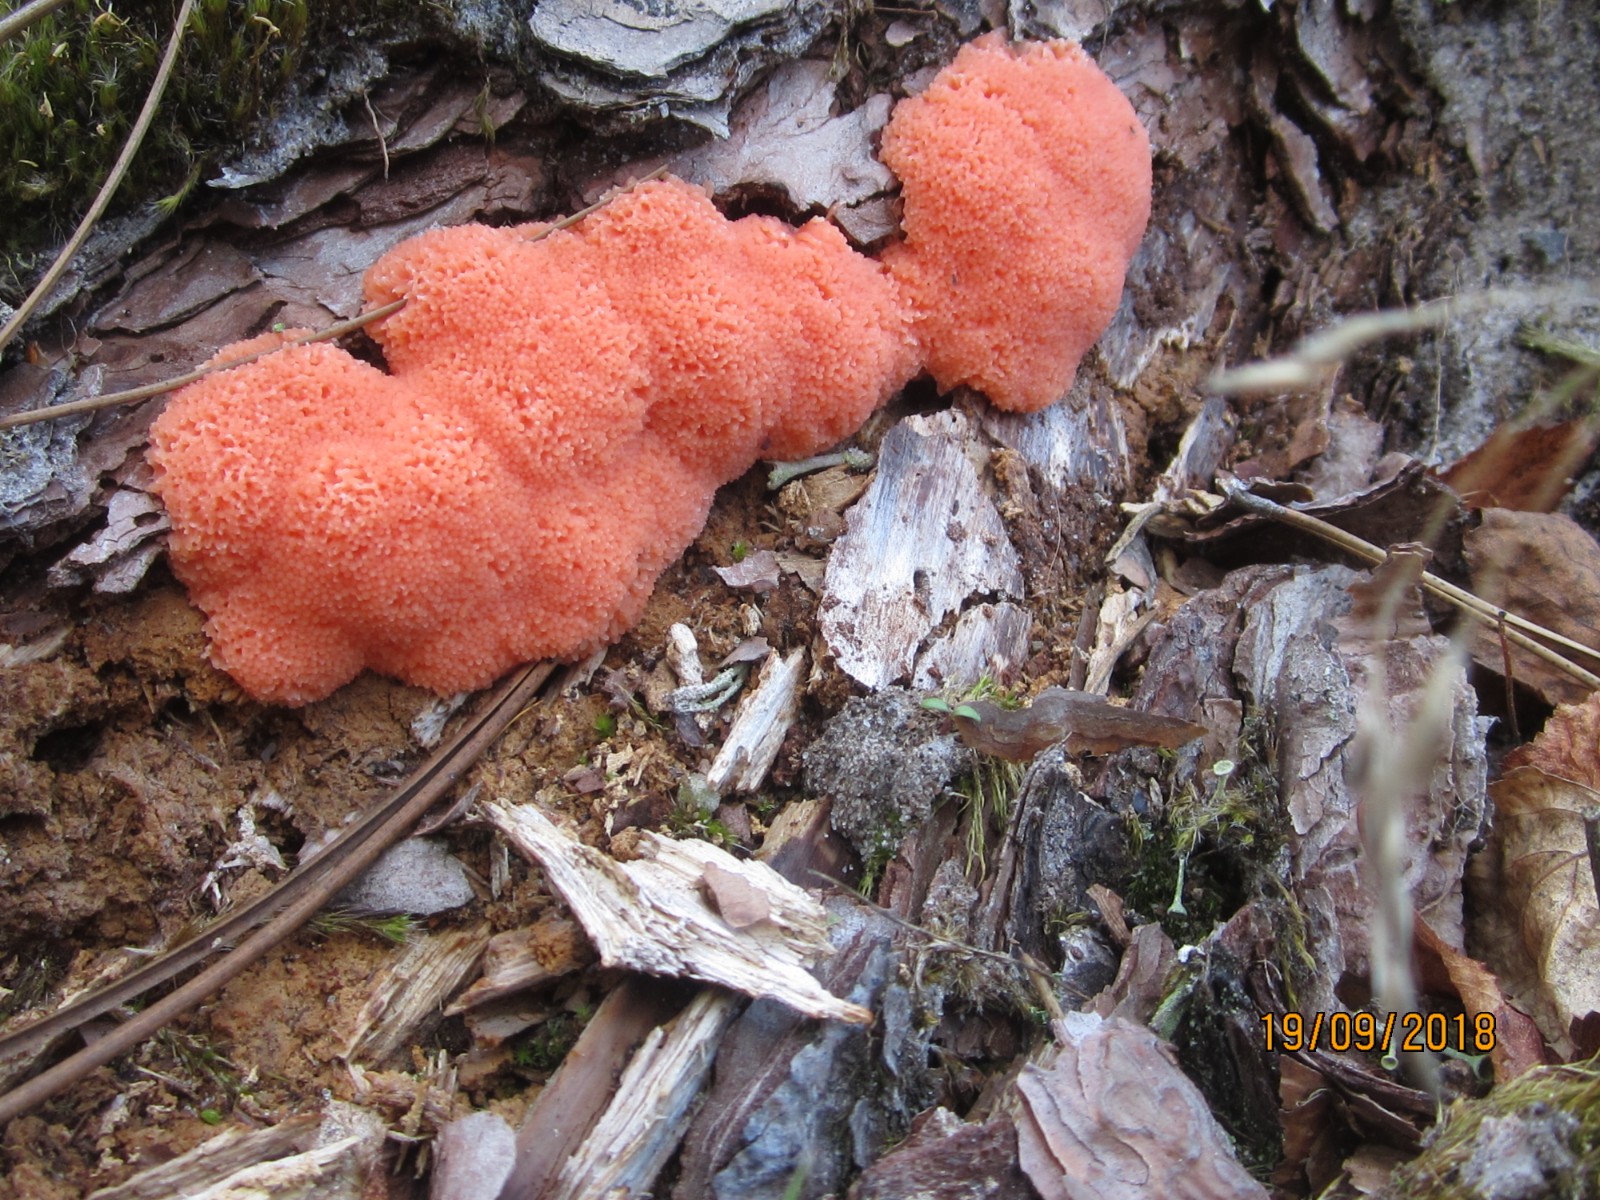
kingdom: Protozoa
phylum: Mycetozoa
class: Myxomycetes
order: Cribrariales
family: Tubiferaceae
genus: Tubifera
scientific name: Tubifera ferruginosa
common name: kanel-støvrør
